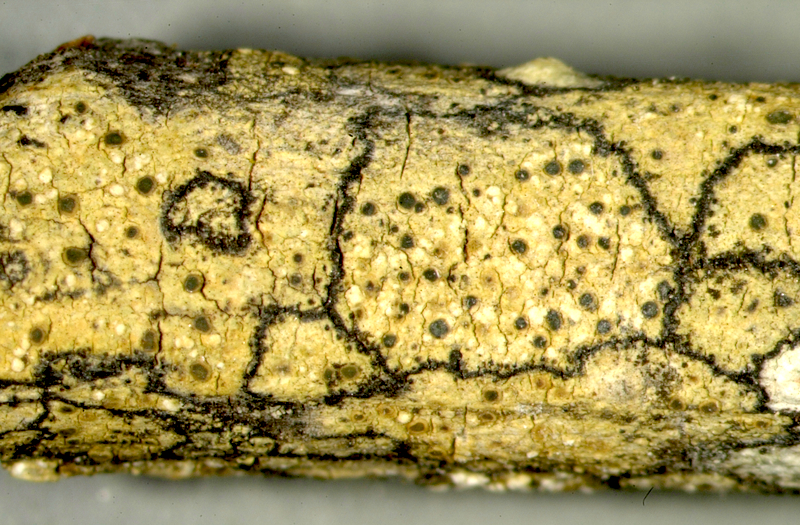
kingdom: Fungi
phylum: Ascomycota
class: Lecanoromycetes
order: Pertusariales
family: Ochrolechiaceae
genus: Ochrolechia
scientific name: Ochrolechia
